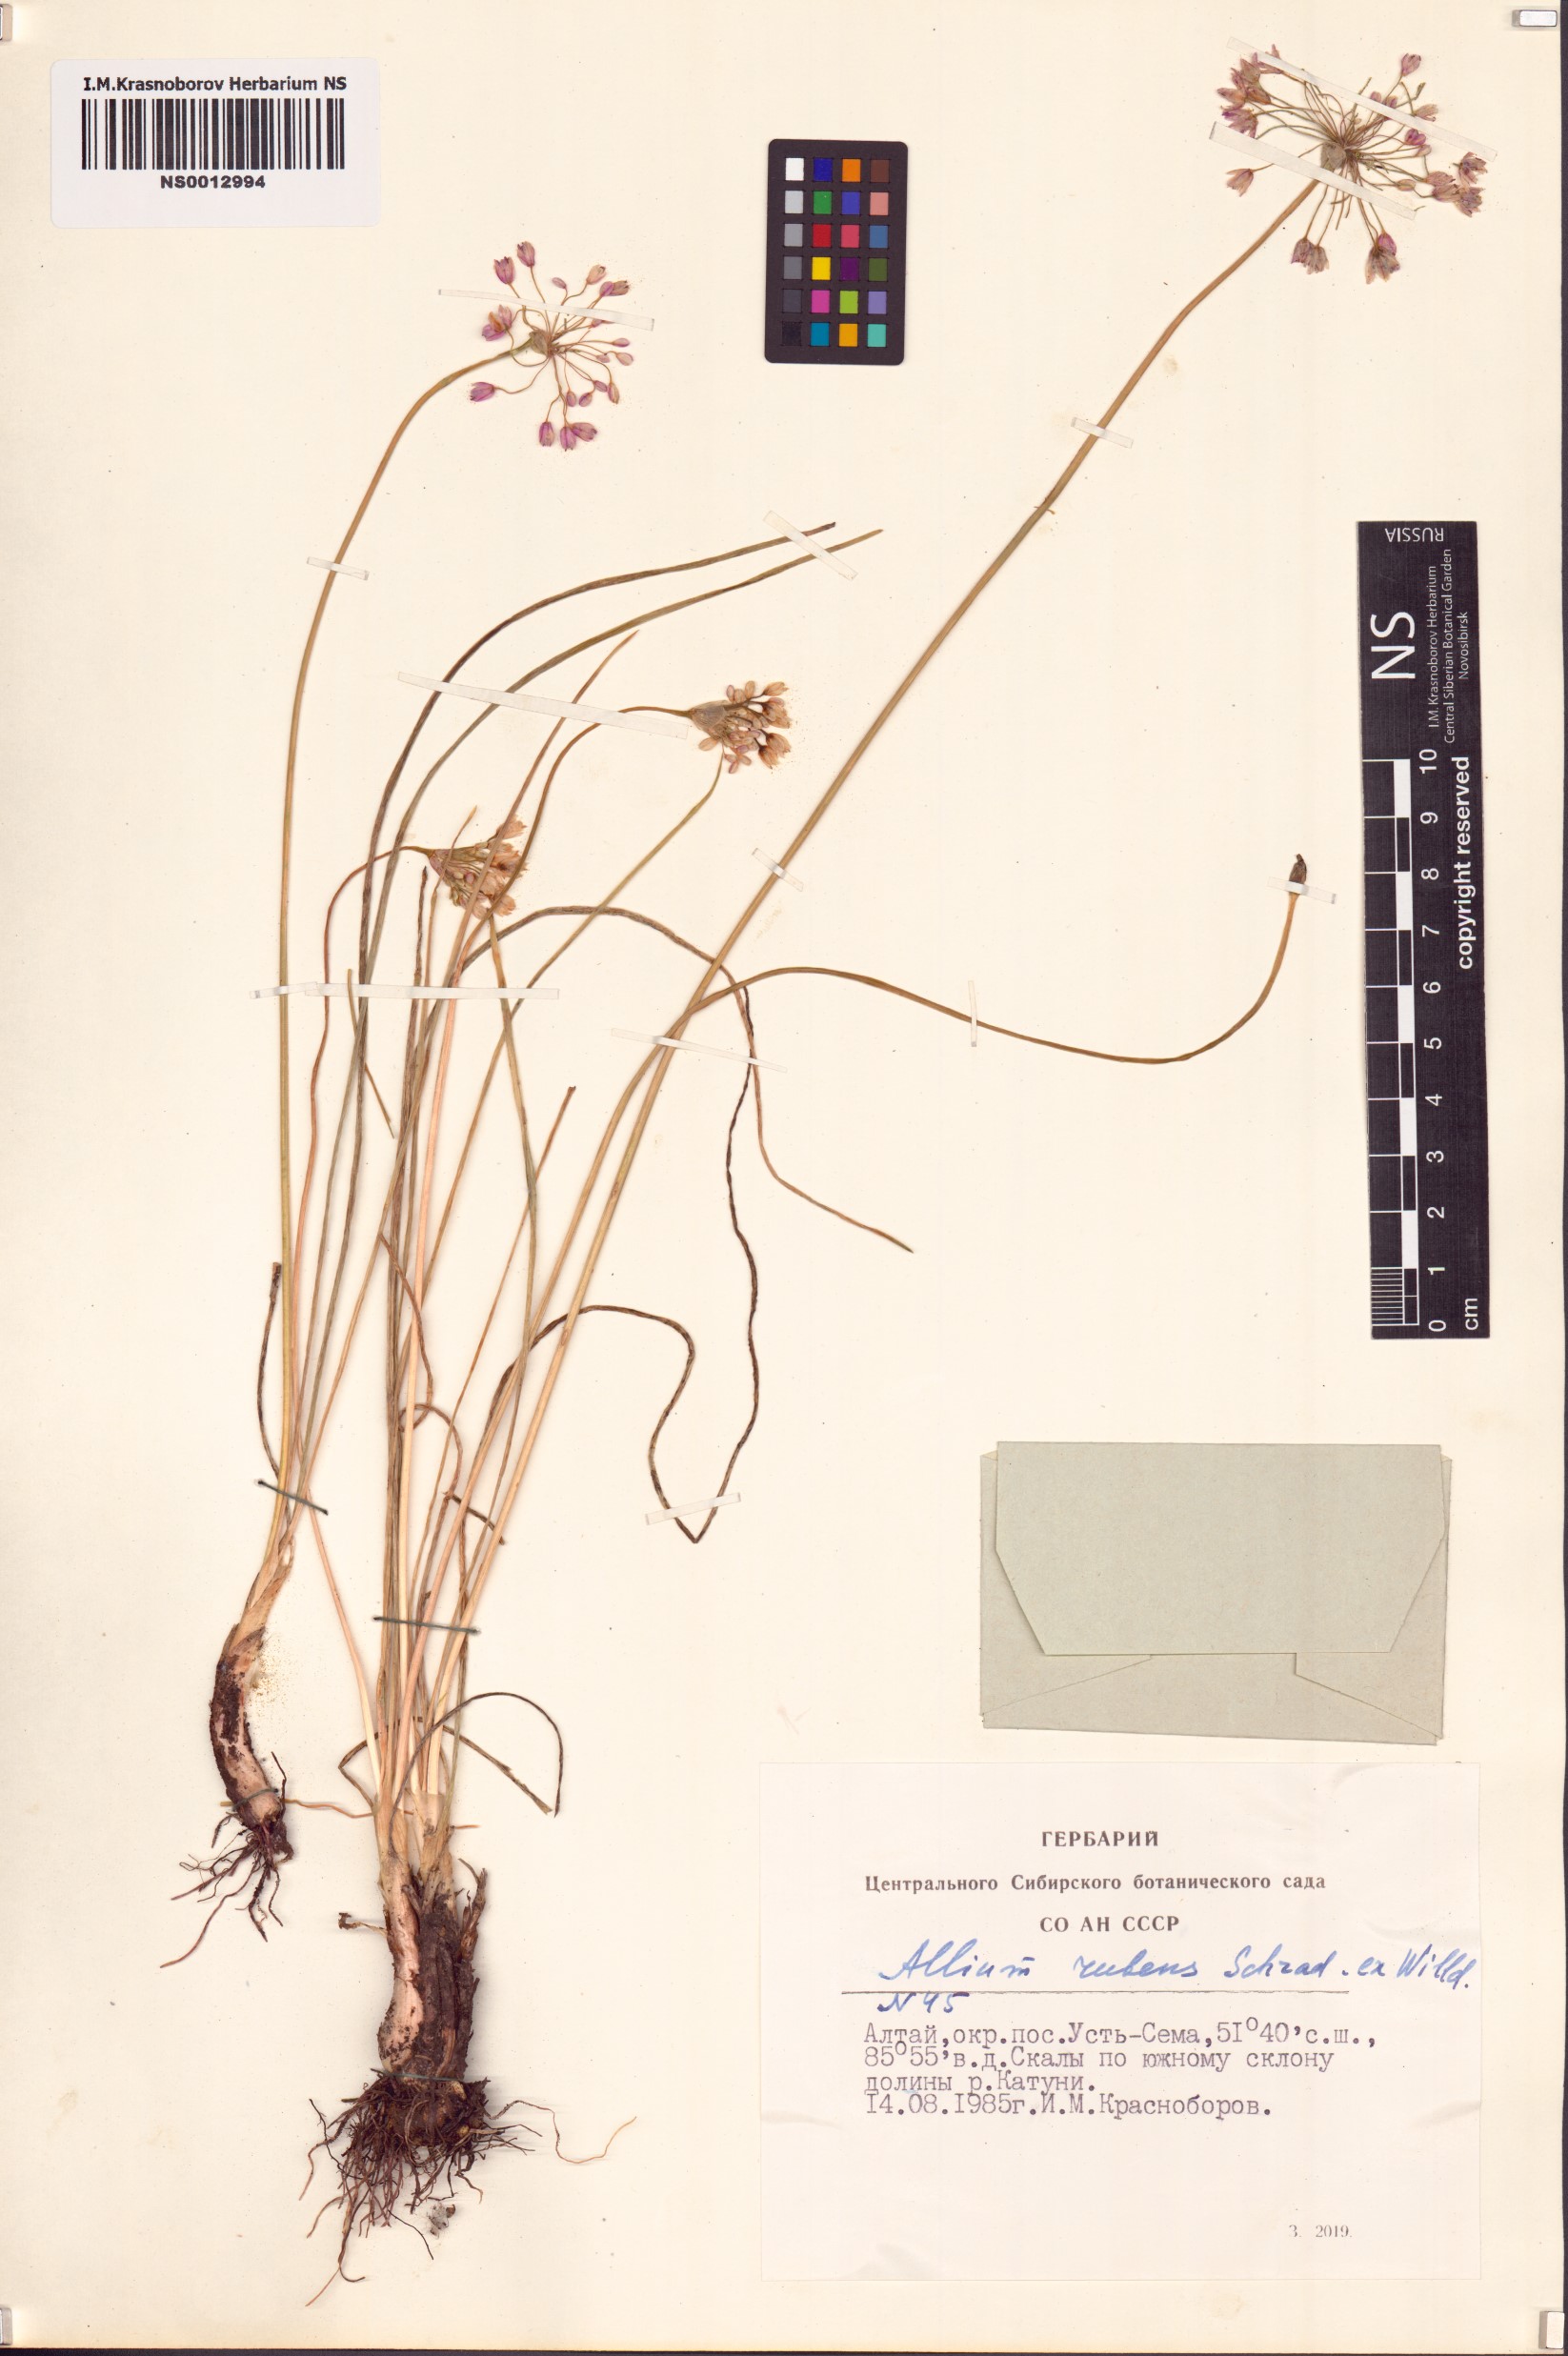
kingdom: Plantae
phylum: Tracheophyta
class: Liliopsida
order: Asparagales
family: Amaryllidaceae
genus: Allium
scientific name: Allium rubens
